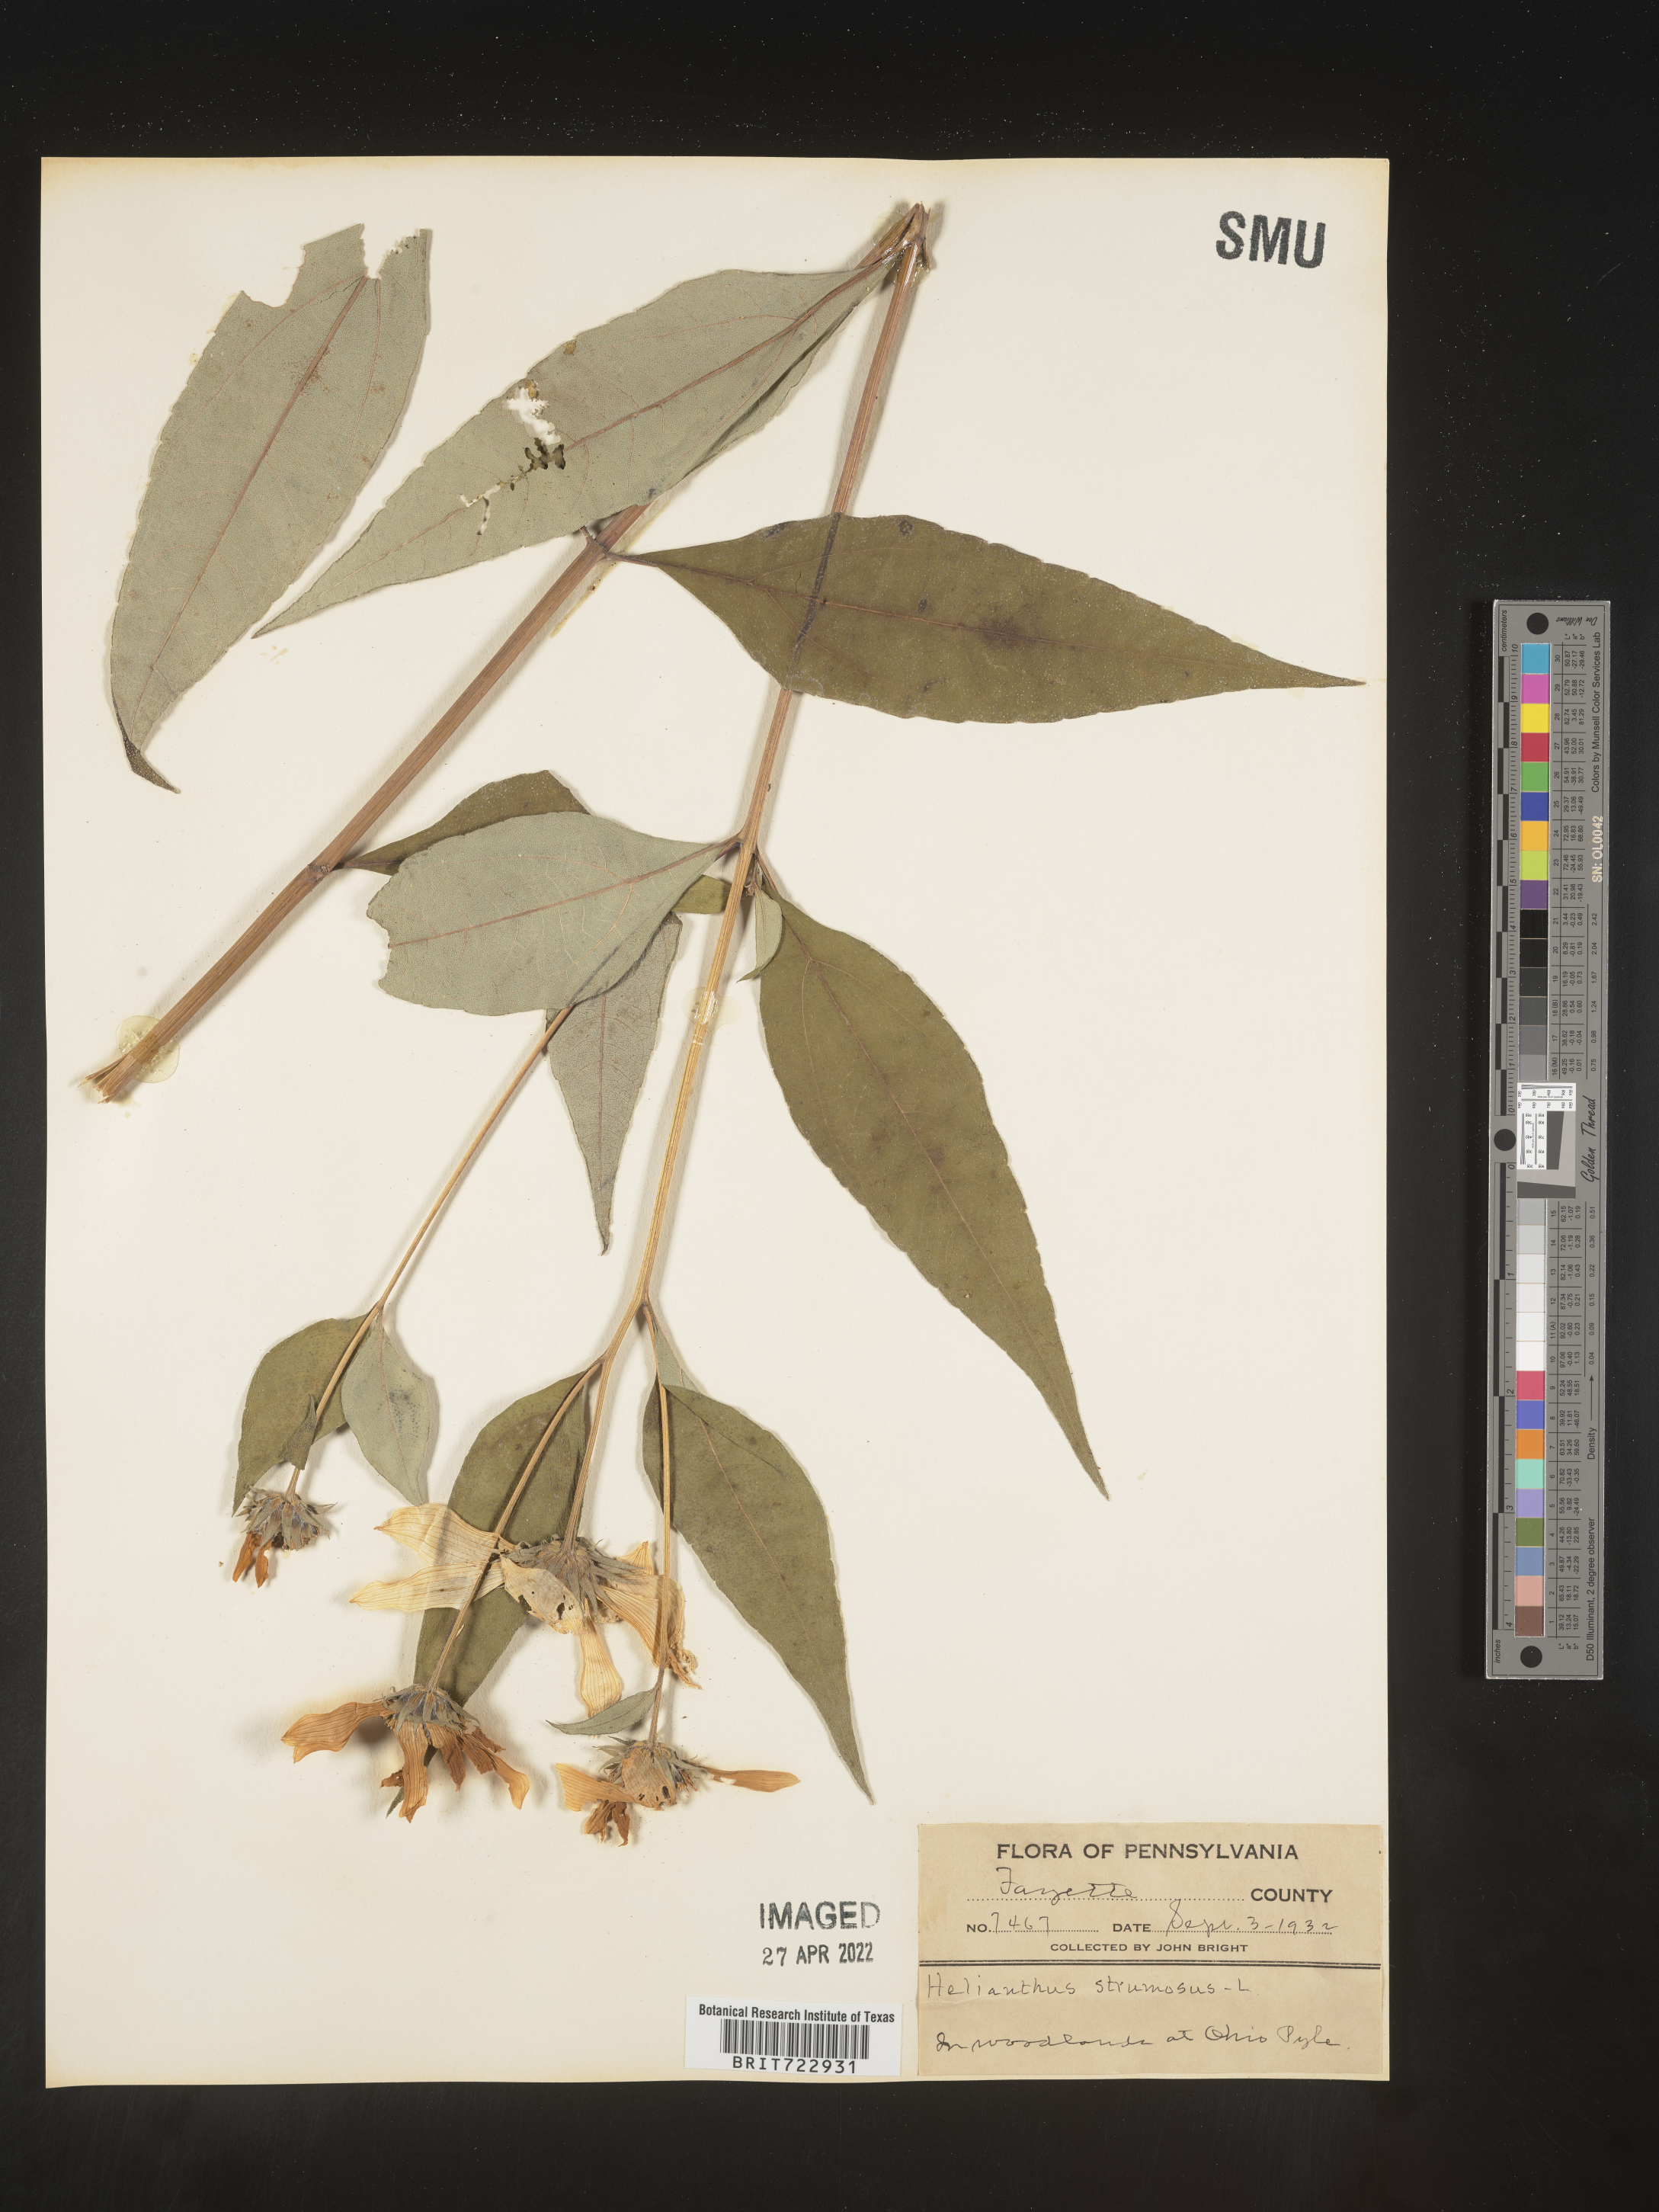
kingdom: Plantae
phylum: Tracheophyta
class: Magnoliopsida
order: Asterales
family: Asteraceae
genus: Helianthus
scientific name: Helianthus strumosus
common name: Pale-leaved sunflower
